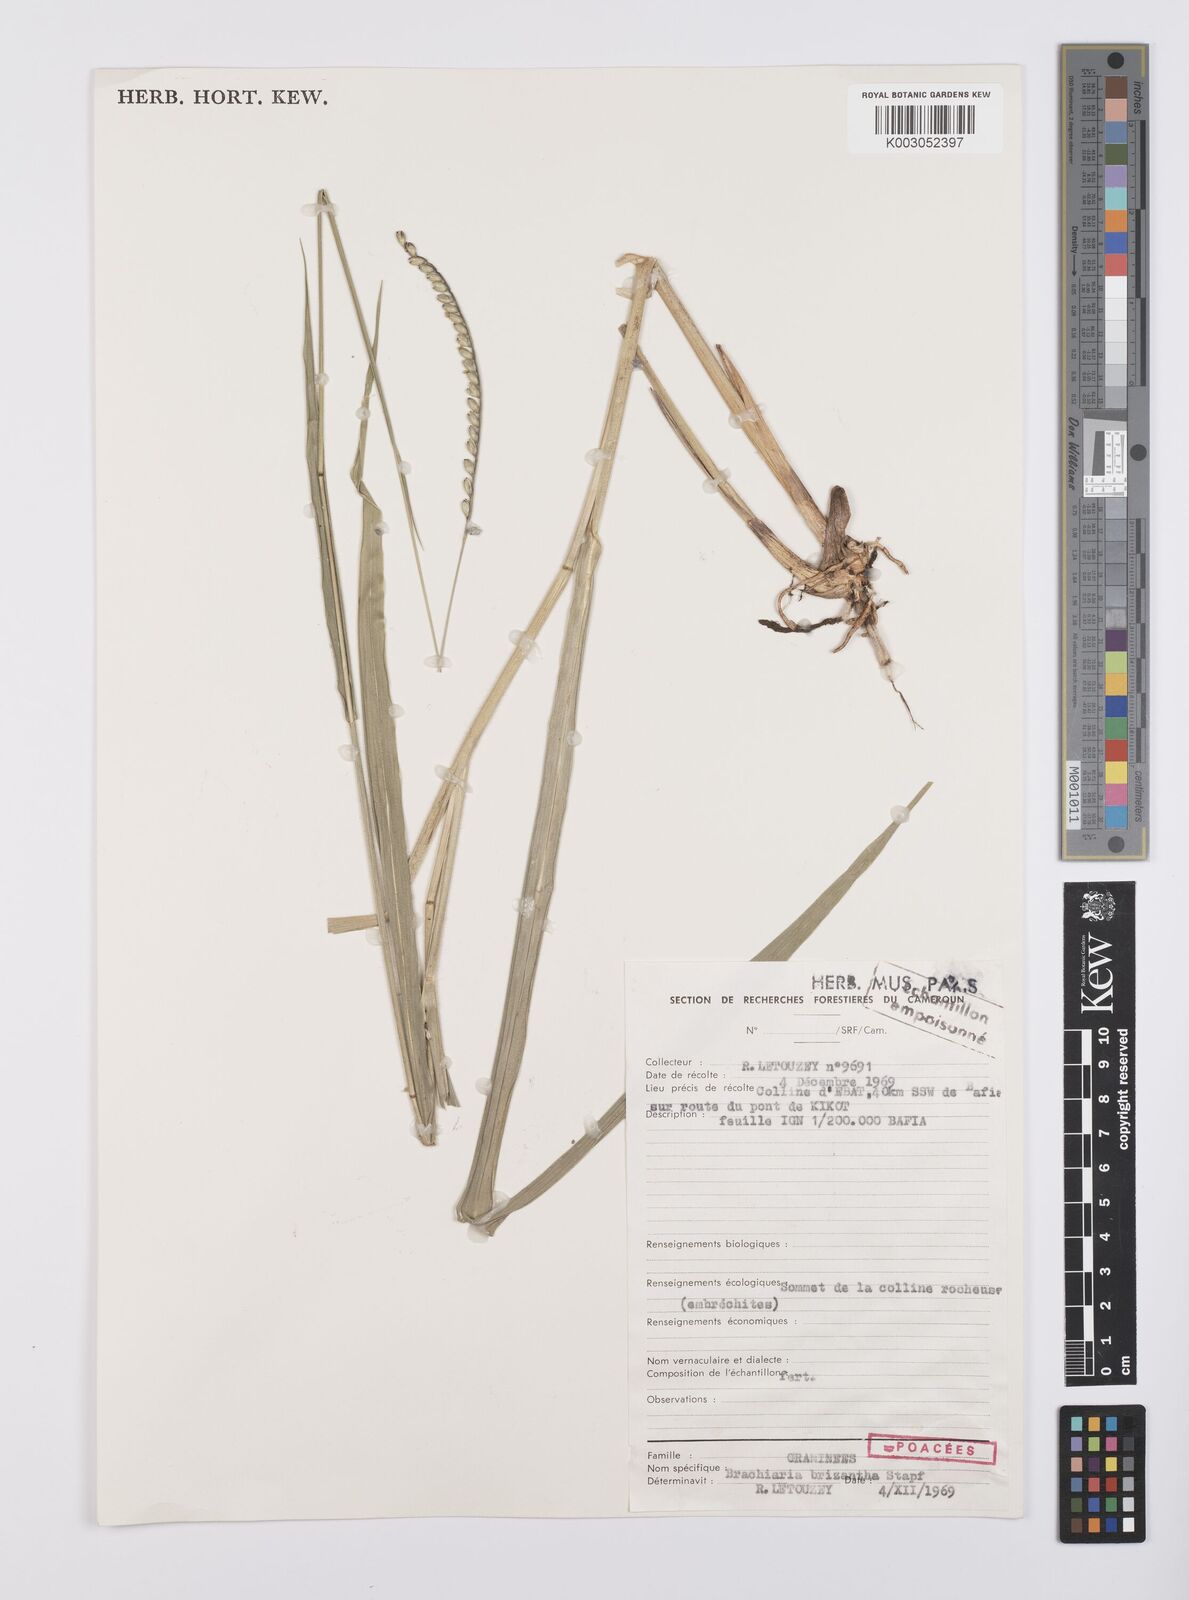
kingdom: Plantae
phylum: Tracheophyta
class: Liliopsida
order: Poales
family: Poaceae
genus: Urochloa
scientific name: Urochloa brizantha
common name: Palisade signalgrass
